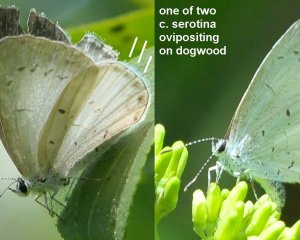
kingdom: Animalia
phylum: Arthropoda
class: Insecta
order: Lepidoptera
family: Lycaenidae
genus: Celastrina
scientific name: Celastrina serotina
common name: Cherry Gall Azure
